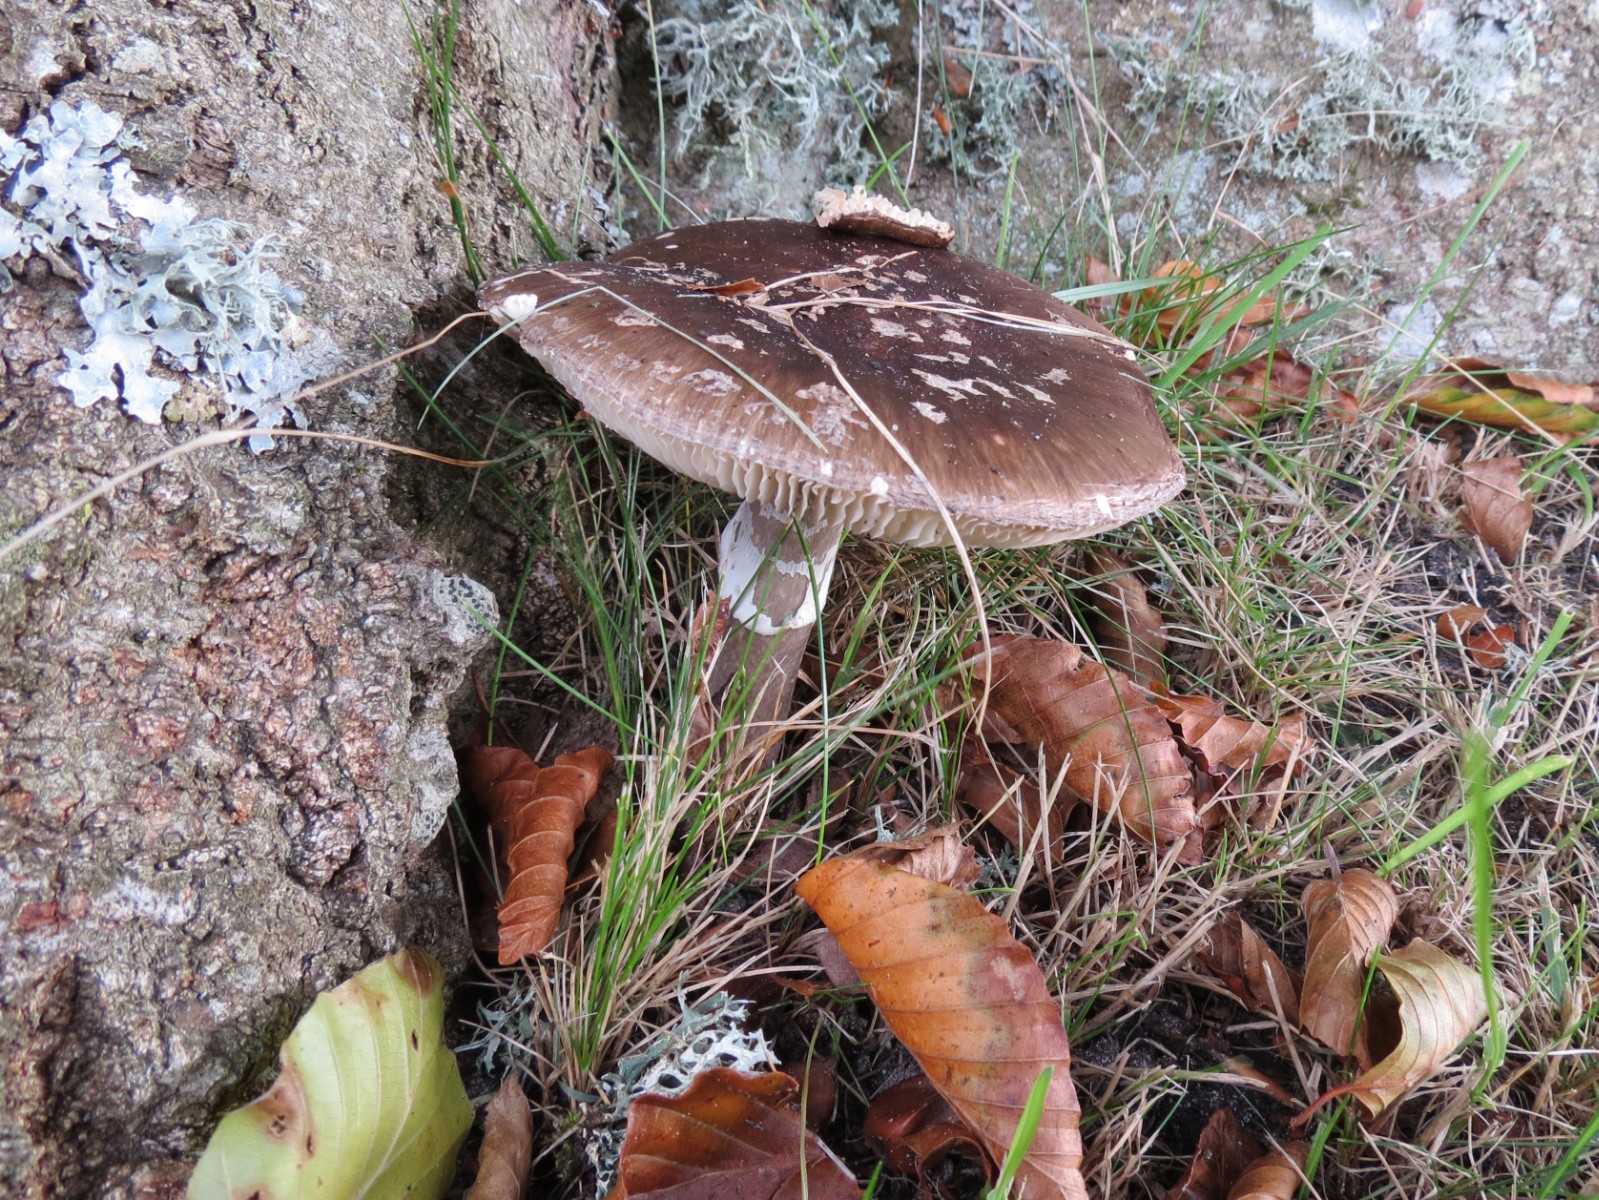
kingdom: Fungi
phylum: Basidiomycota
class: Agaricomycetes
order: Agaricales
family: Amanitaceae
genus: Amanita
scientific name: Amanita pantherina
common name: panter-fluesvamp
